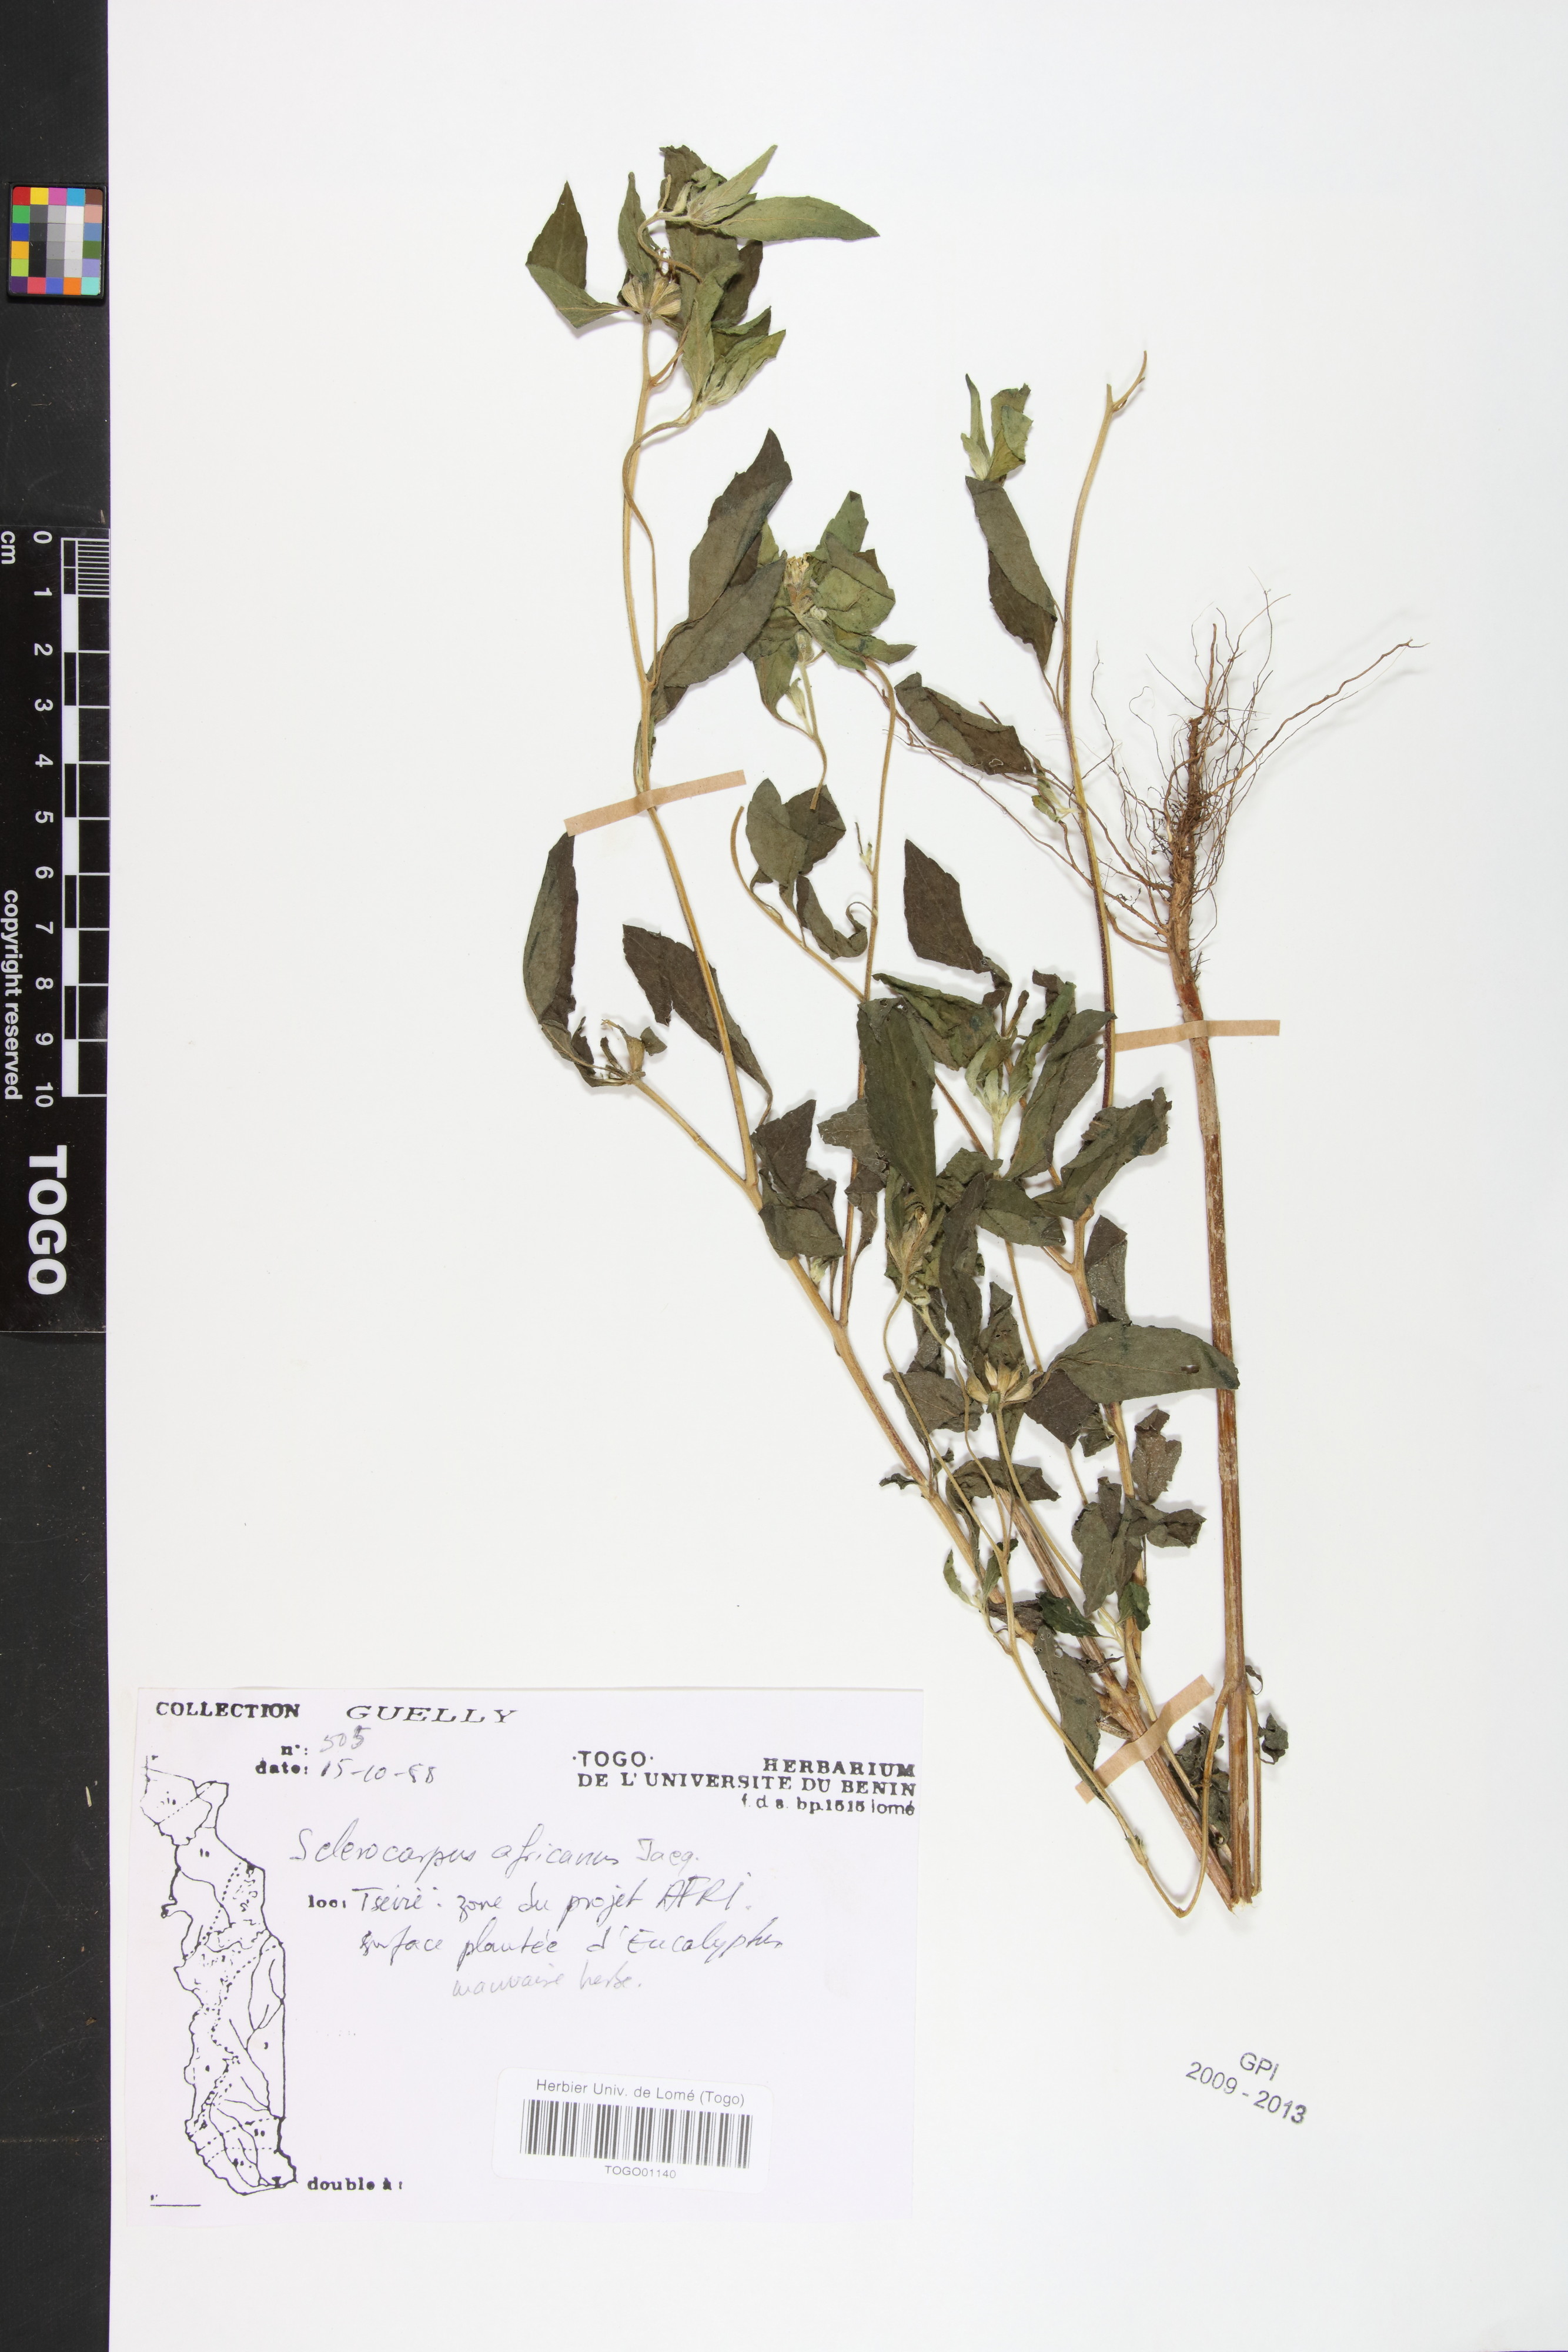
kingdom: Plantae
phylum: Tracheophyta
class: Magnoliopsida
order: Asterales
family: Asteraceae
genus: Sclerocarpus
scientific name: Sclerocarpus africanus
